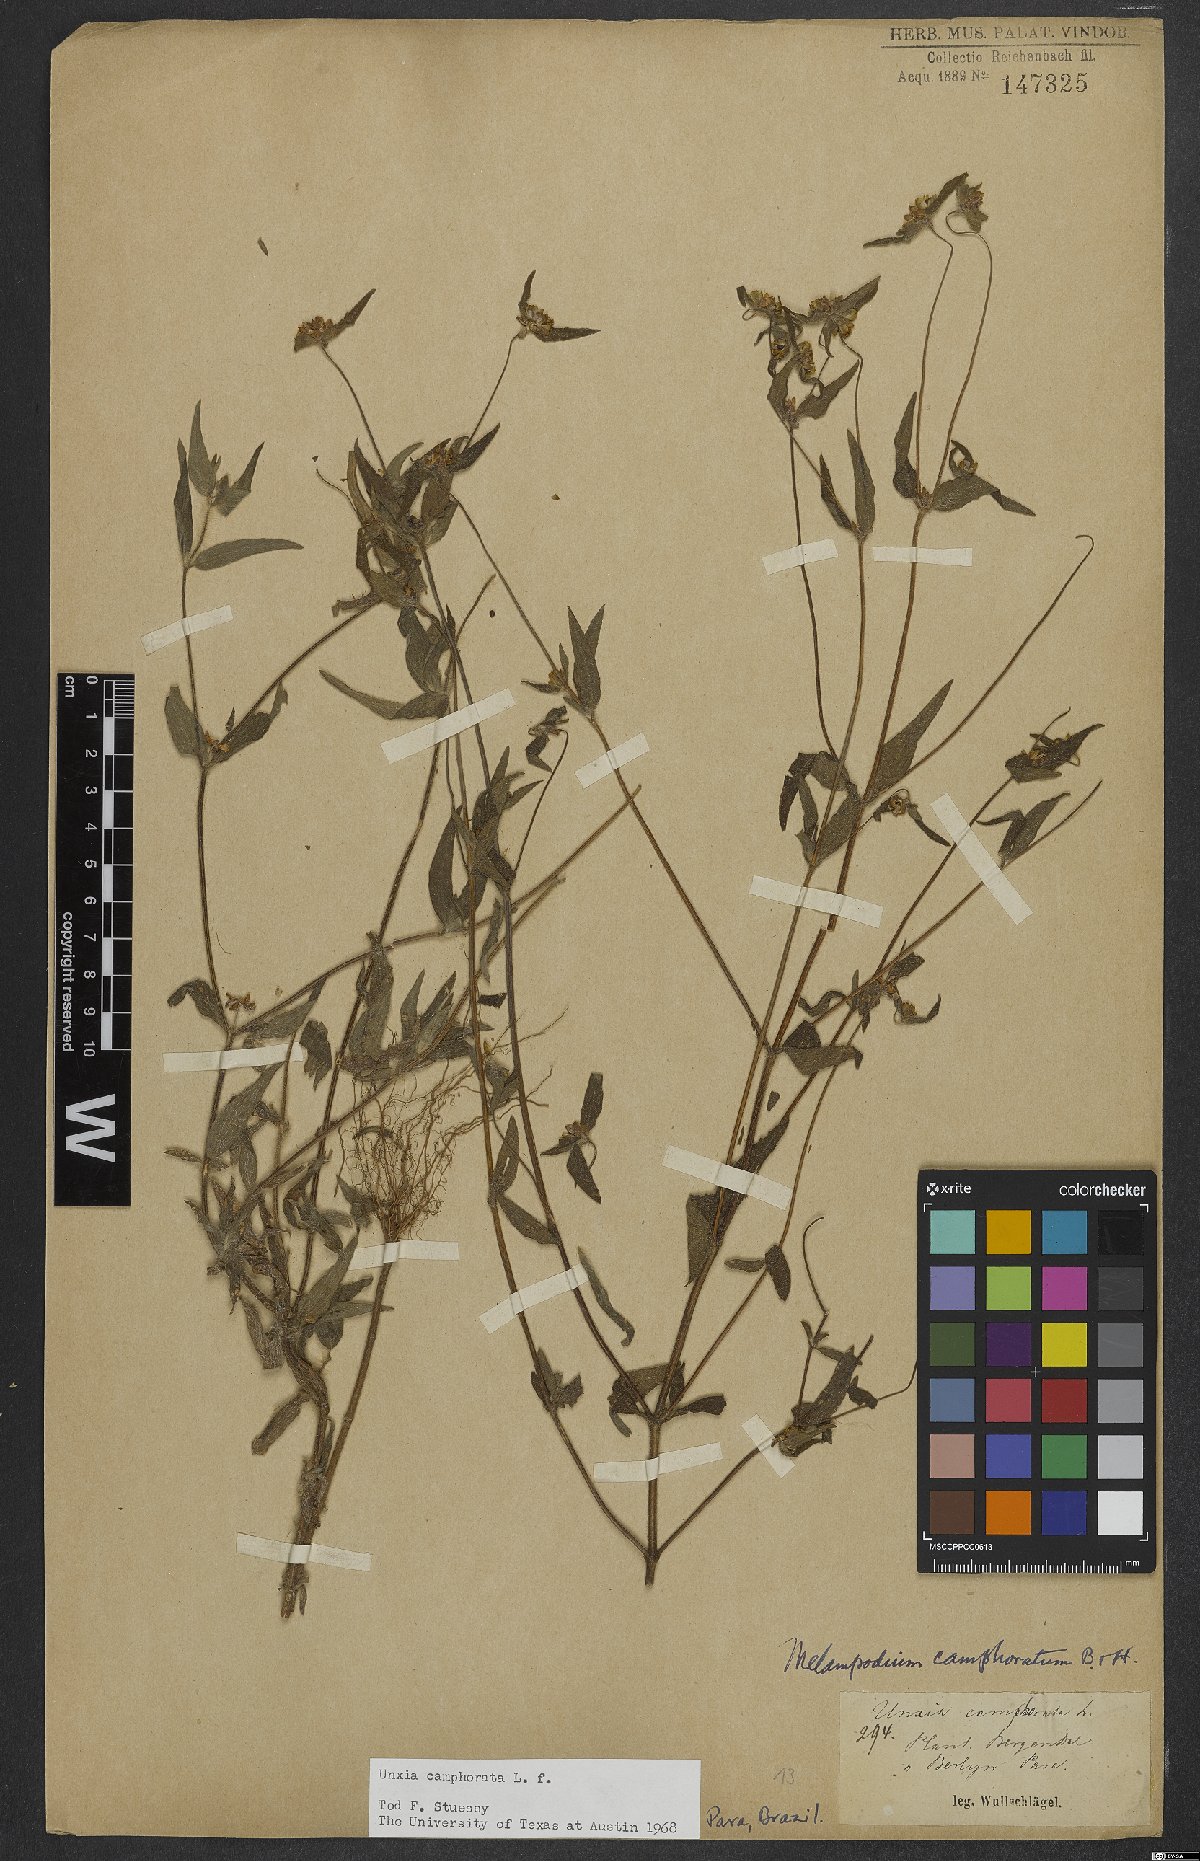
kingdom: Plantae
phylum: Tracheophyta
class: Magnoliopsida
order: Asterales
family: Asteraceae
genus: Unxia
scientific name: Unxia camphorata
